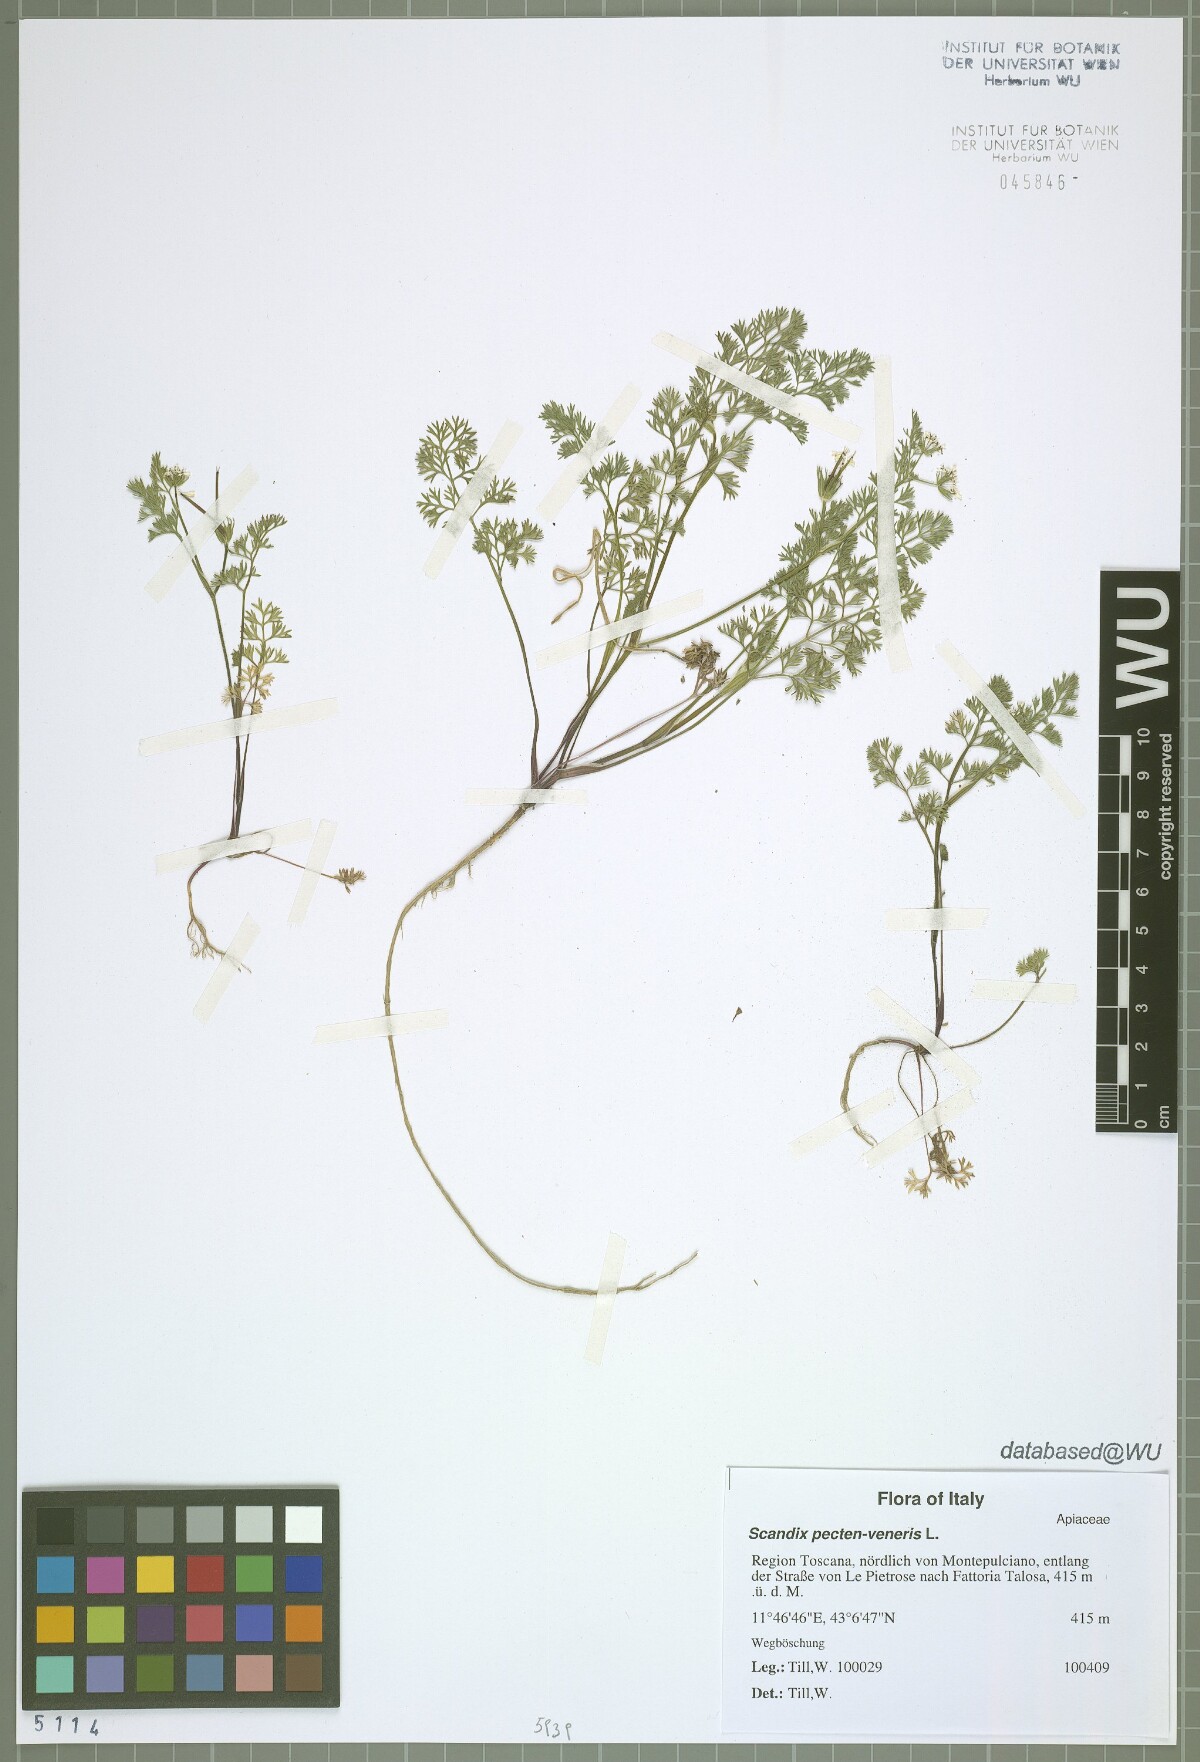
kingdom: Plantae
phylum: Tracheophyta
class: Magnoliopsida
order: Apiales
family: Apiaceae
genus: Scandix
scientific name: Scandix pecten-veneris
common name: Shepherd's-needle
